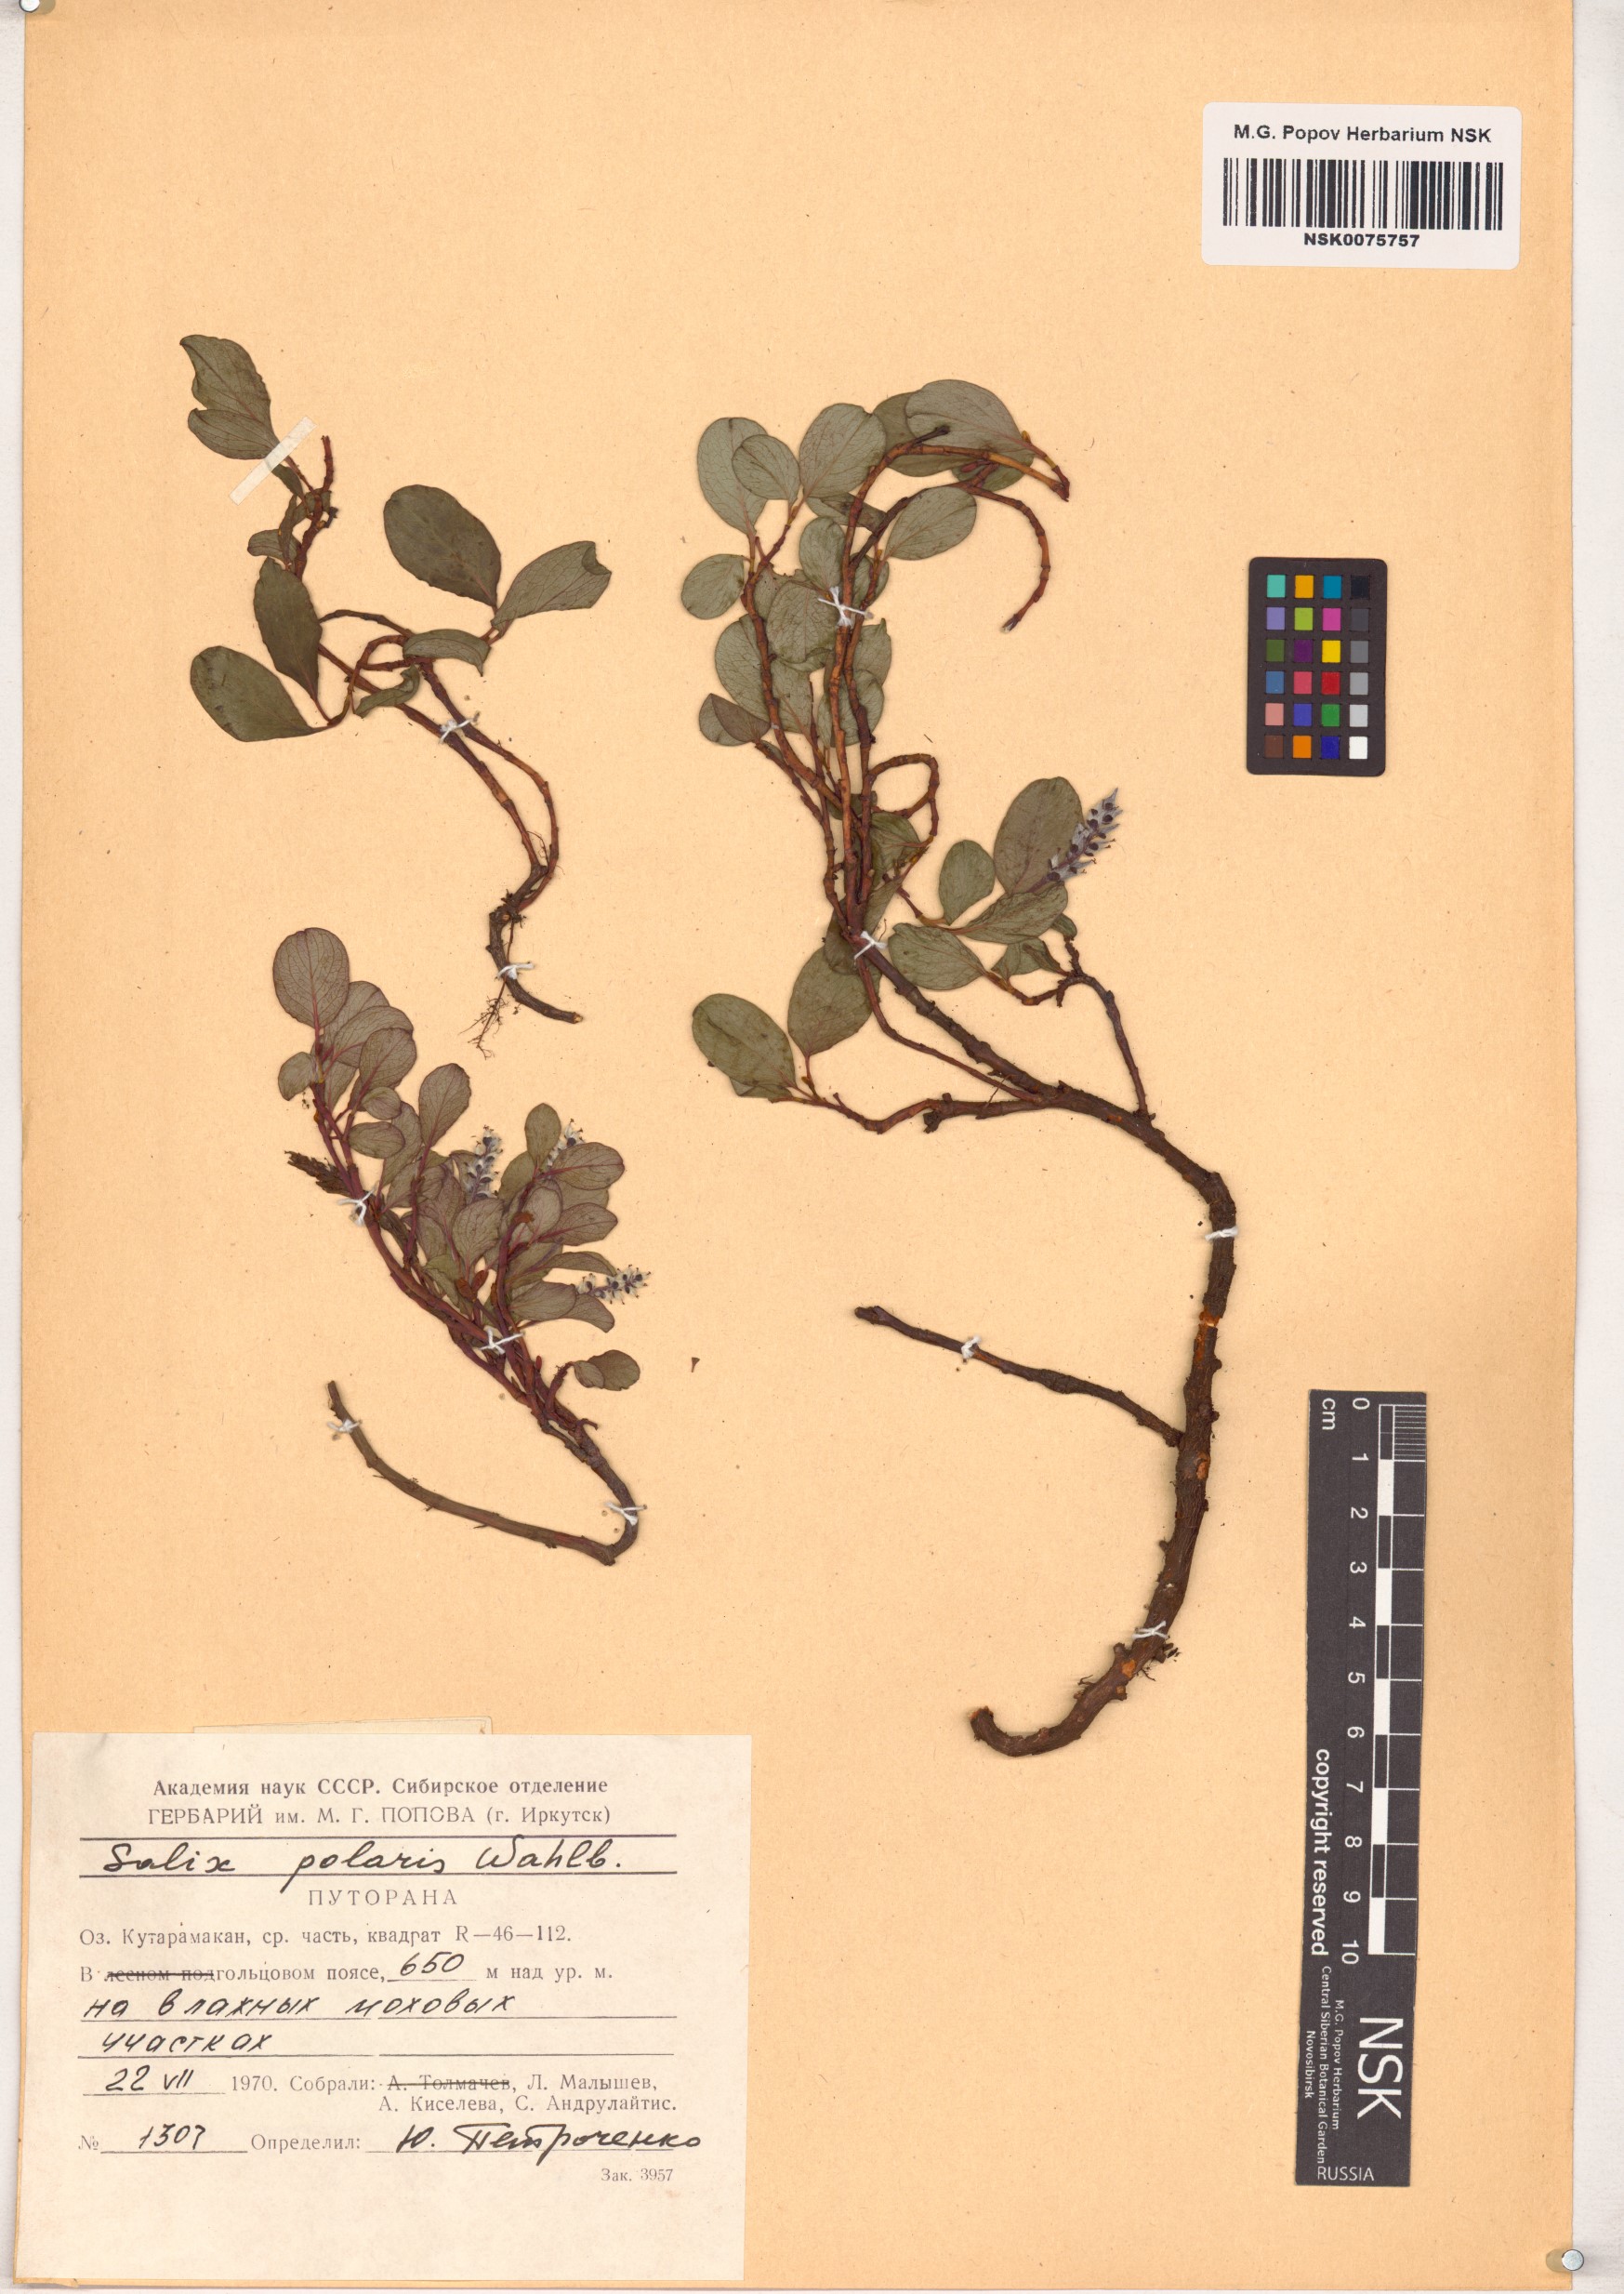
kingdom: Plantae
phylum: Tracheophyta
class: Magnoliopsida
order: Malpighiales
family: Salicaceae
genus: Salix
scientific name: Salix polaris
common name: Polar willow
